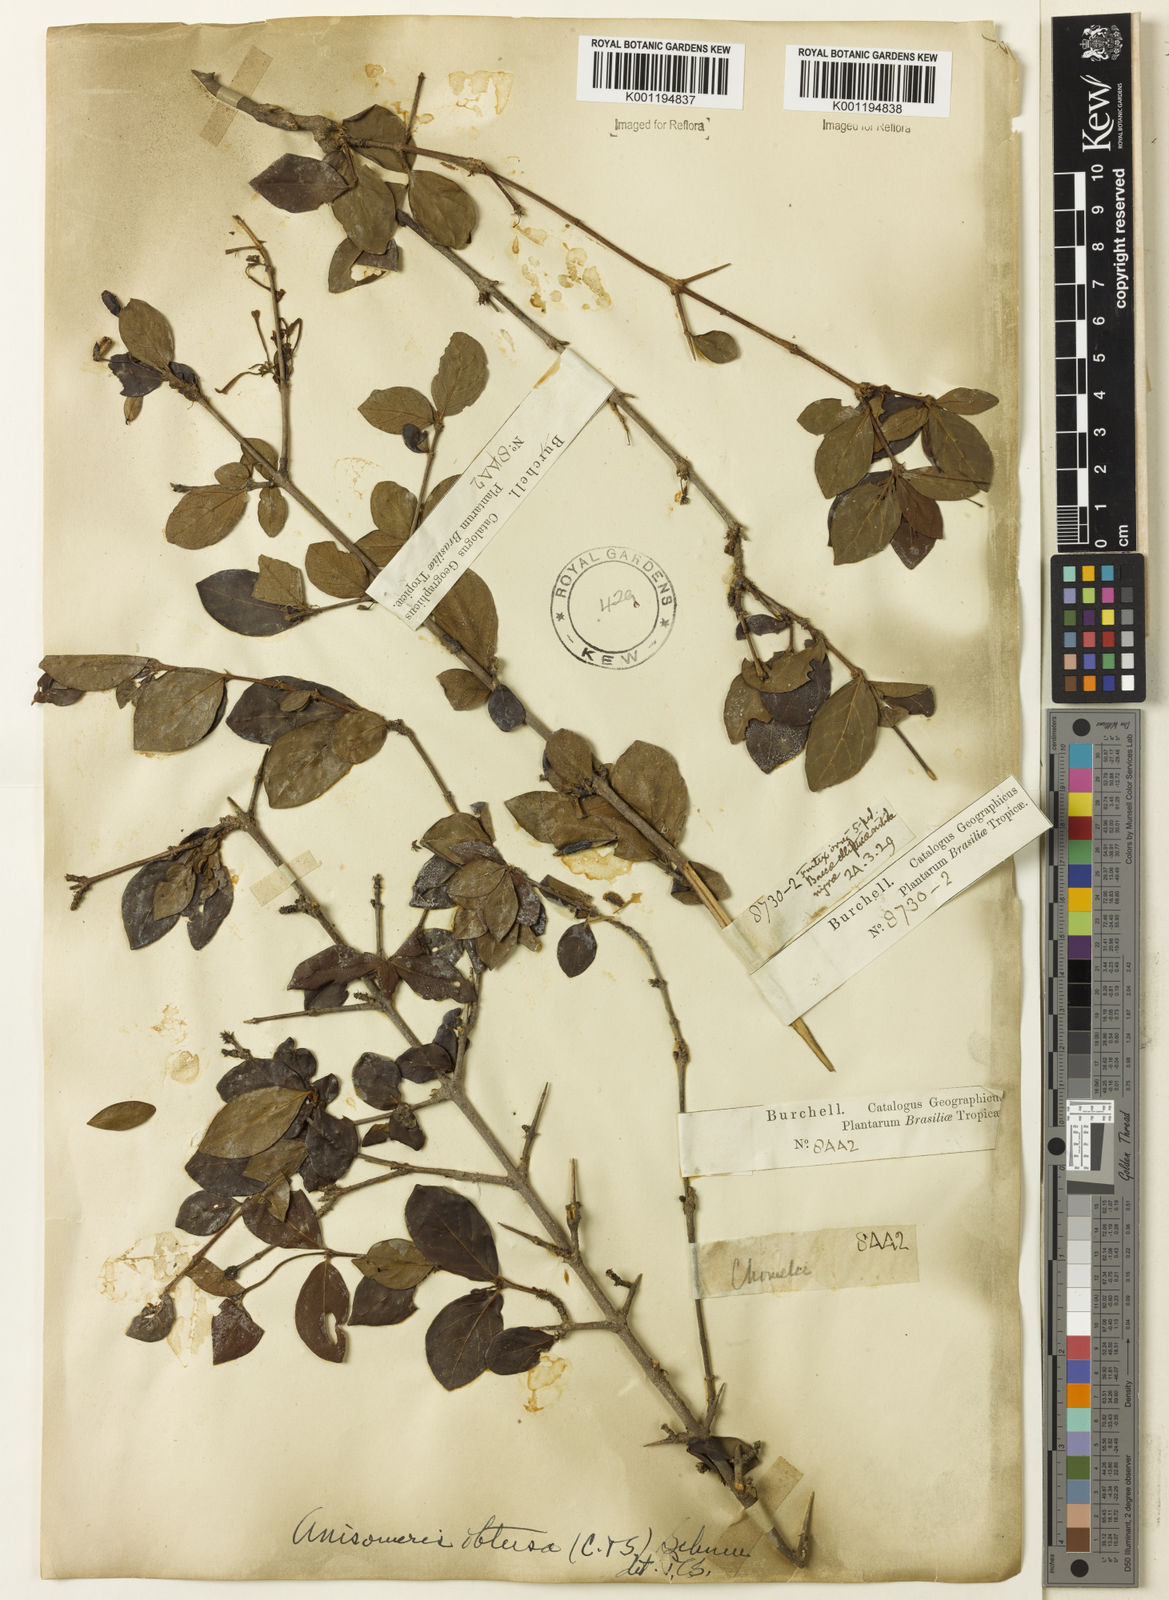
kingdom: Plantae
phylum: Tracheophyta
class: Magnoliopsida
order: Gentianales
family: Rubiaceae
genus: Chomelia
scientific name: Chomelia obtusa
